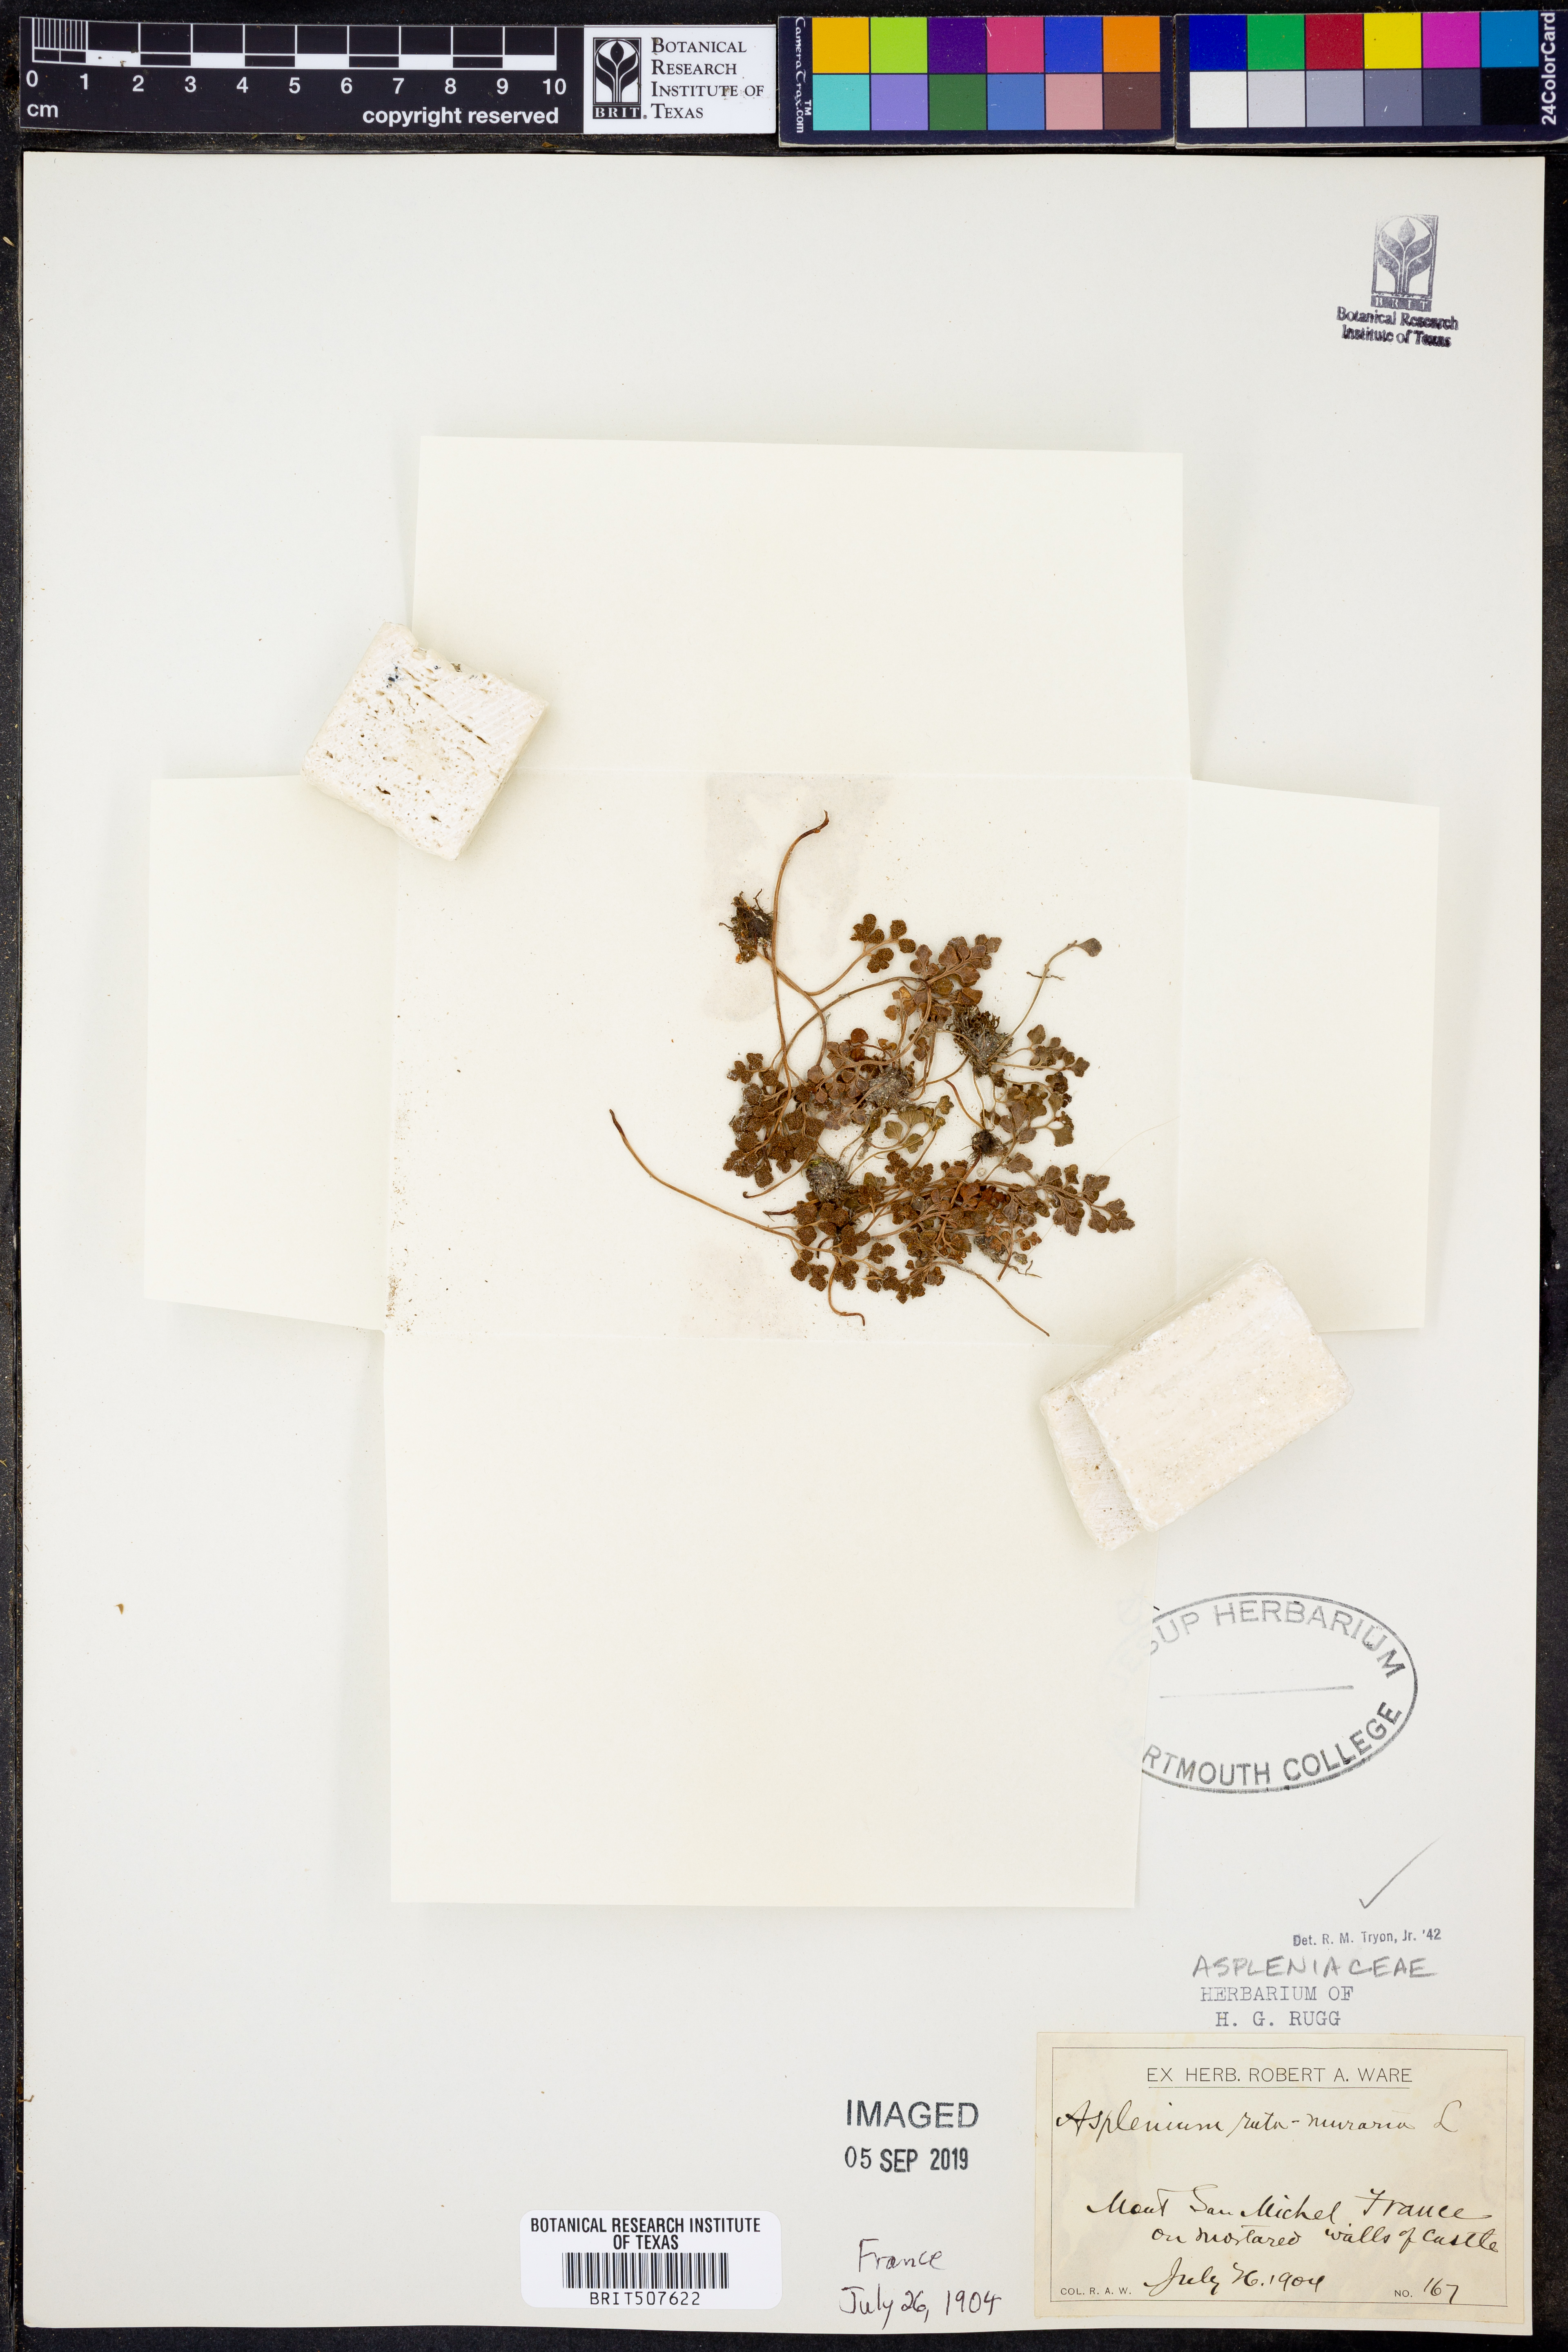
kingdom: Plantae
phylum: Tracheophyta
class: Polypodiopsida
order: Polypodiales
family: Aspleniaceae
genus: Asplenium
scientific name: Asplenium ruta-muraria
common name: Wall-rue
